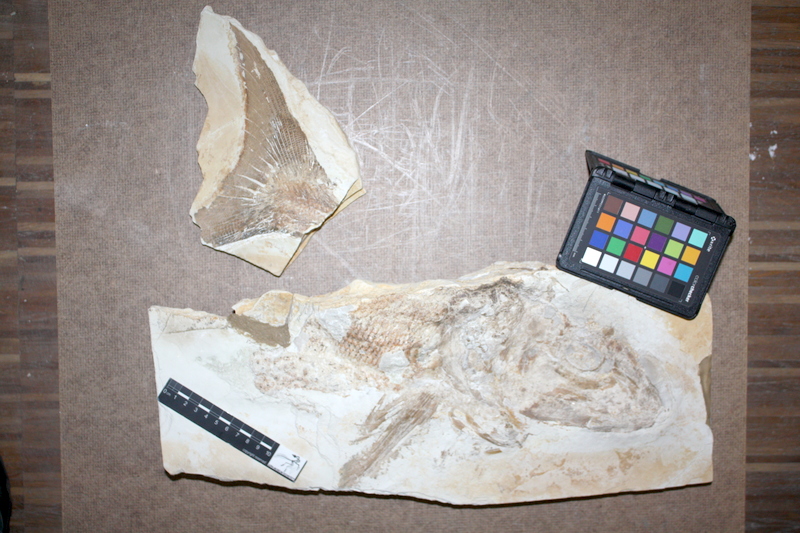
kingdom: Animalia
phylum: Chordata
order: Amiiformes
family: Caturidae
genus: Caturus
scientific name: Caturus
